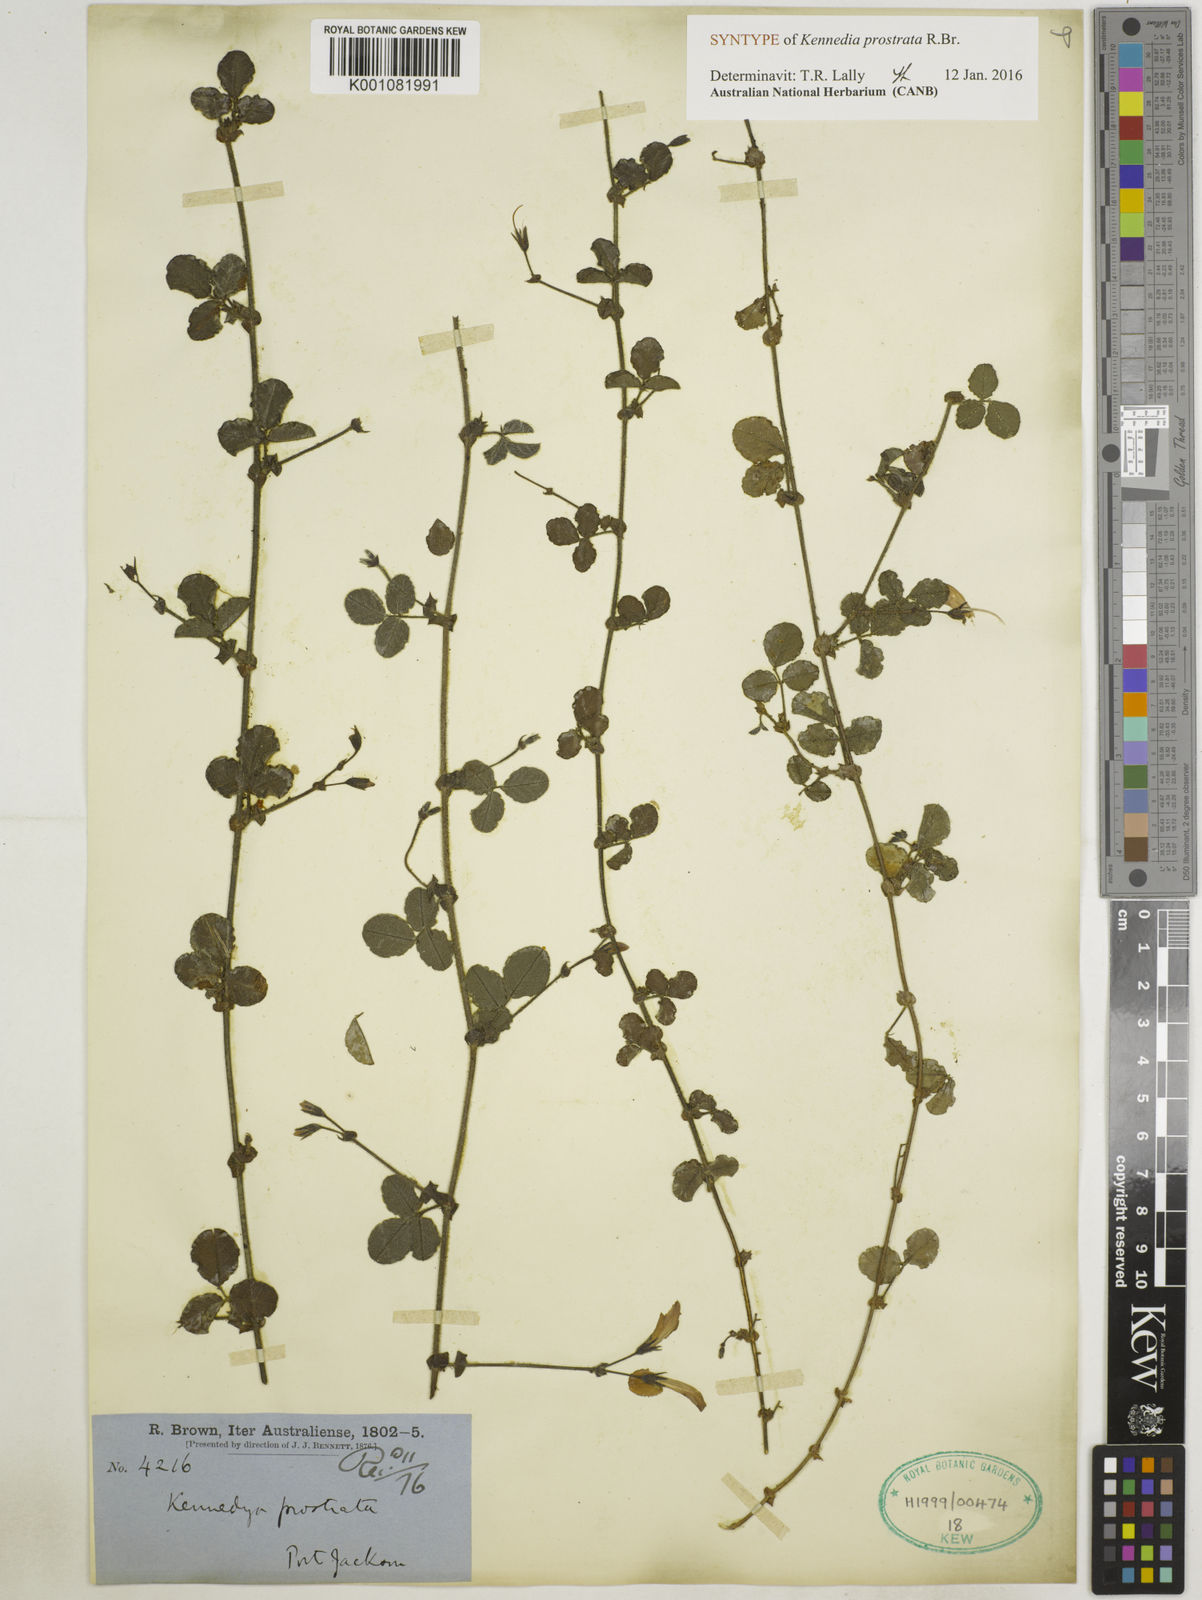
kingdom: Plantae
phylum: Tracheophyta
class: Magnoliopsida
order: Fabales
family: Fabaceae
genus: Kennedia
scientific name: Kennedia prostrata
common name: Running-postman
